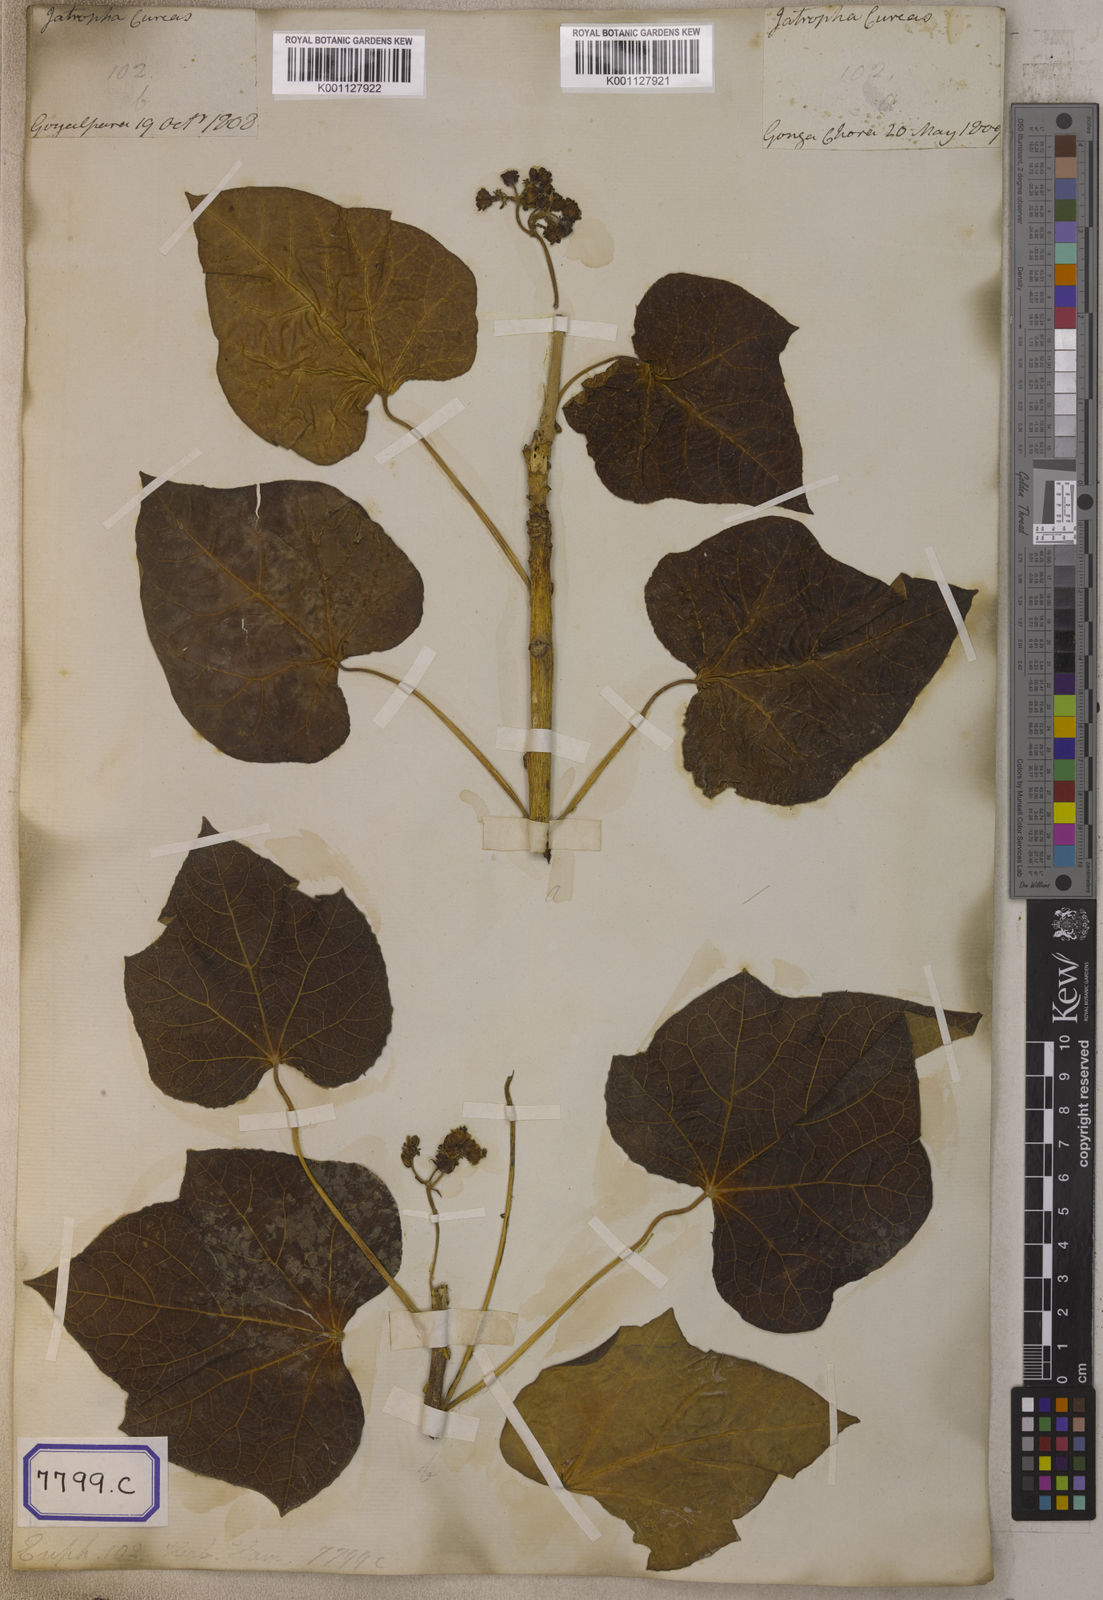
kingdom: Plantae
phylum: Tracheophyta
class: Magnoliopsida
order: Malpighiales
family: Euphorbiaceae
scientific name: Euphorbiaceae
